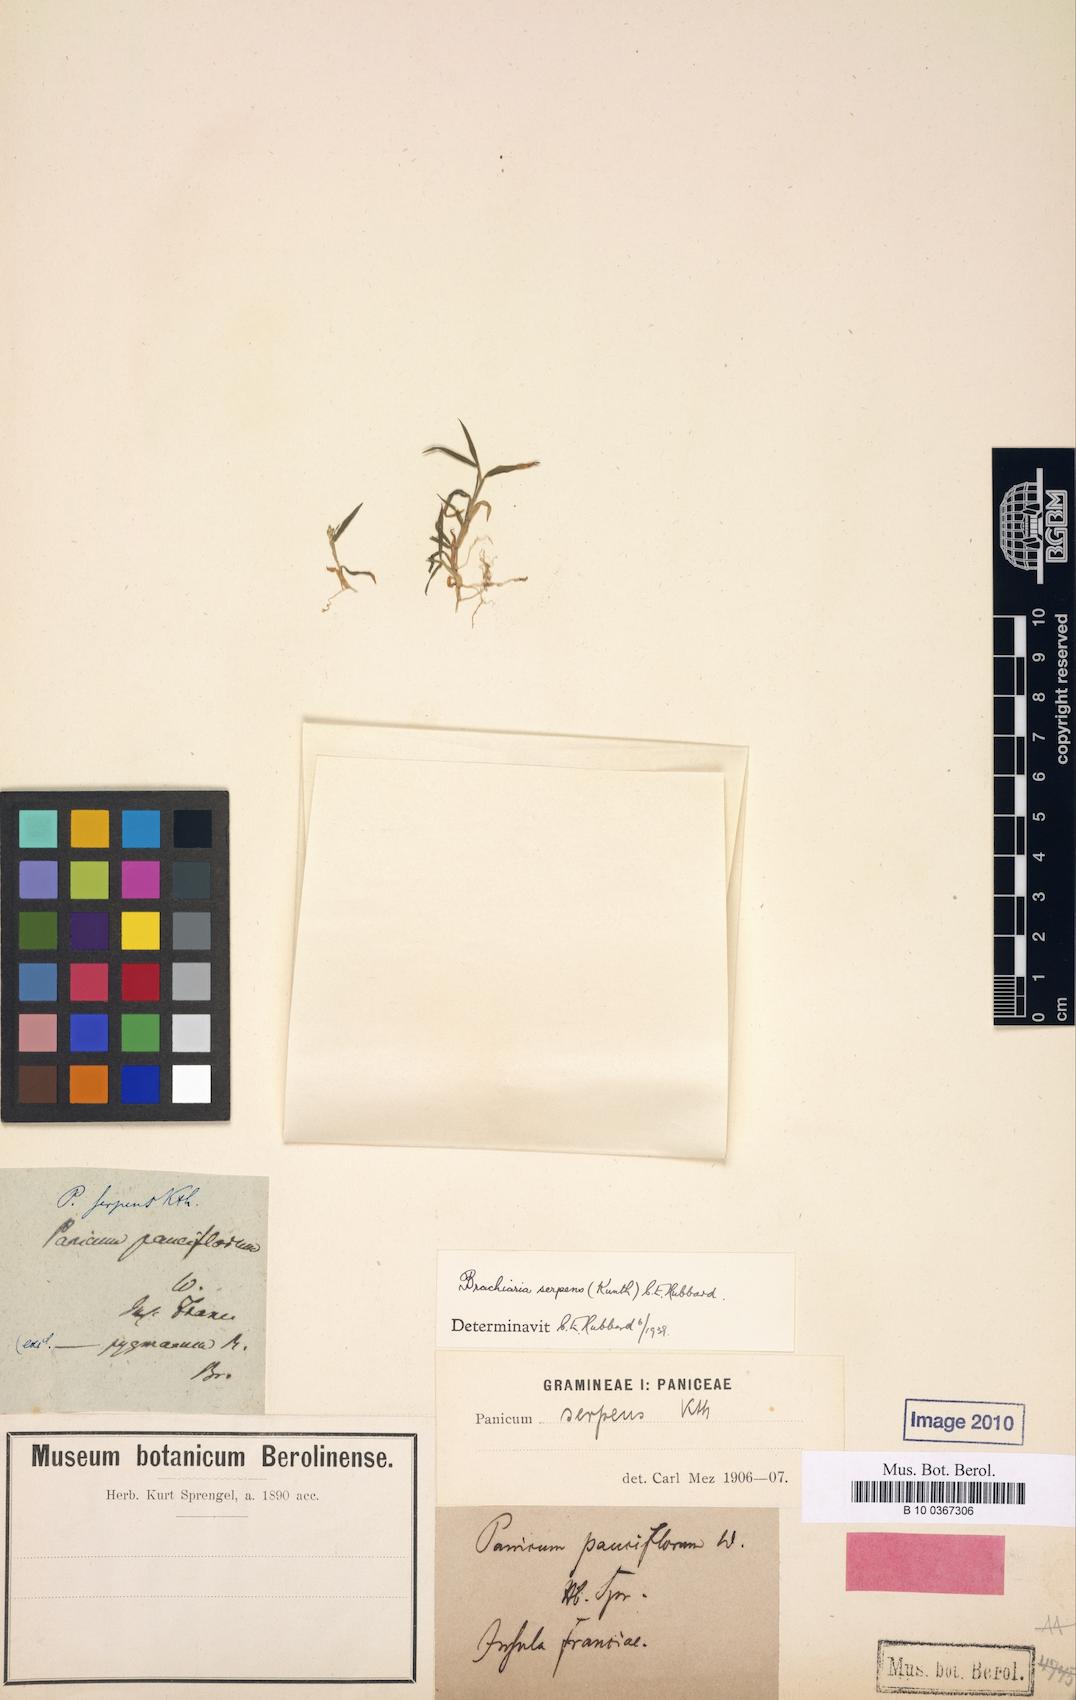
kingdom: Plantae
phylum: Tracheophyta
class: Liliopsida
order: Poales
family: Poaceae
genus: Panicum
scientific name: Panicum pauciflorum
